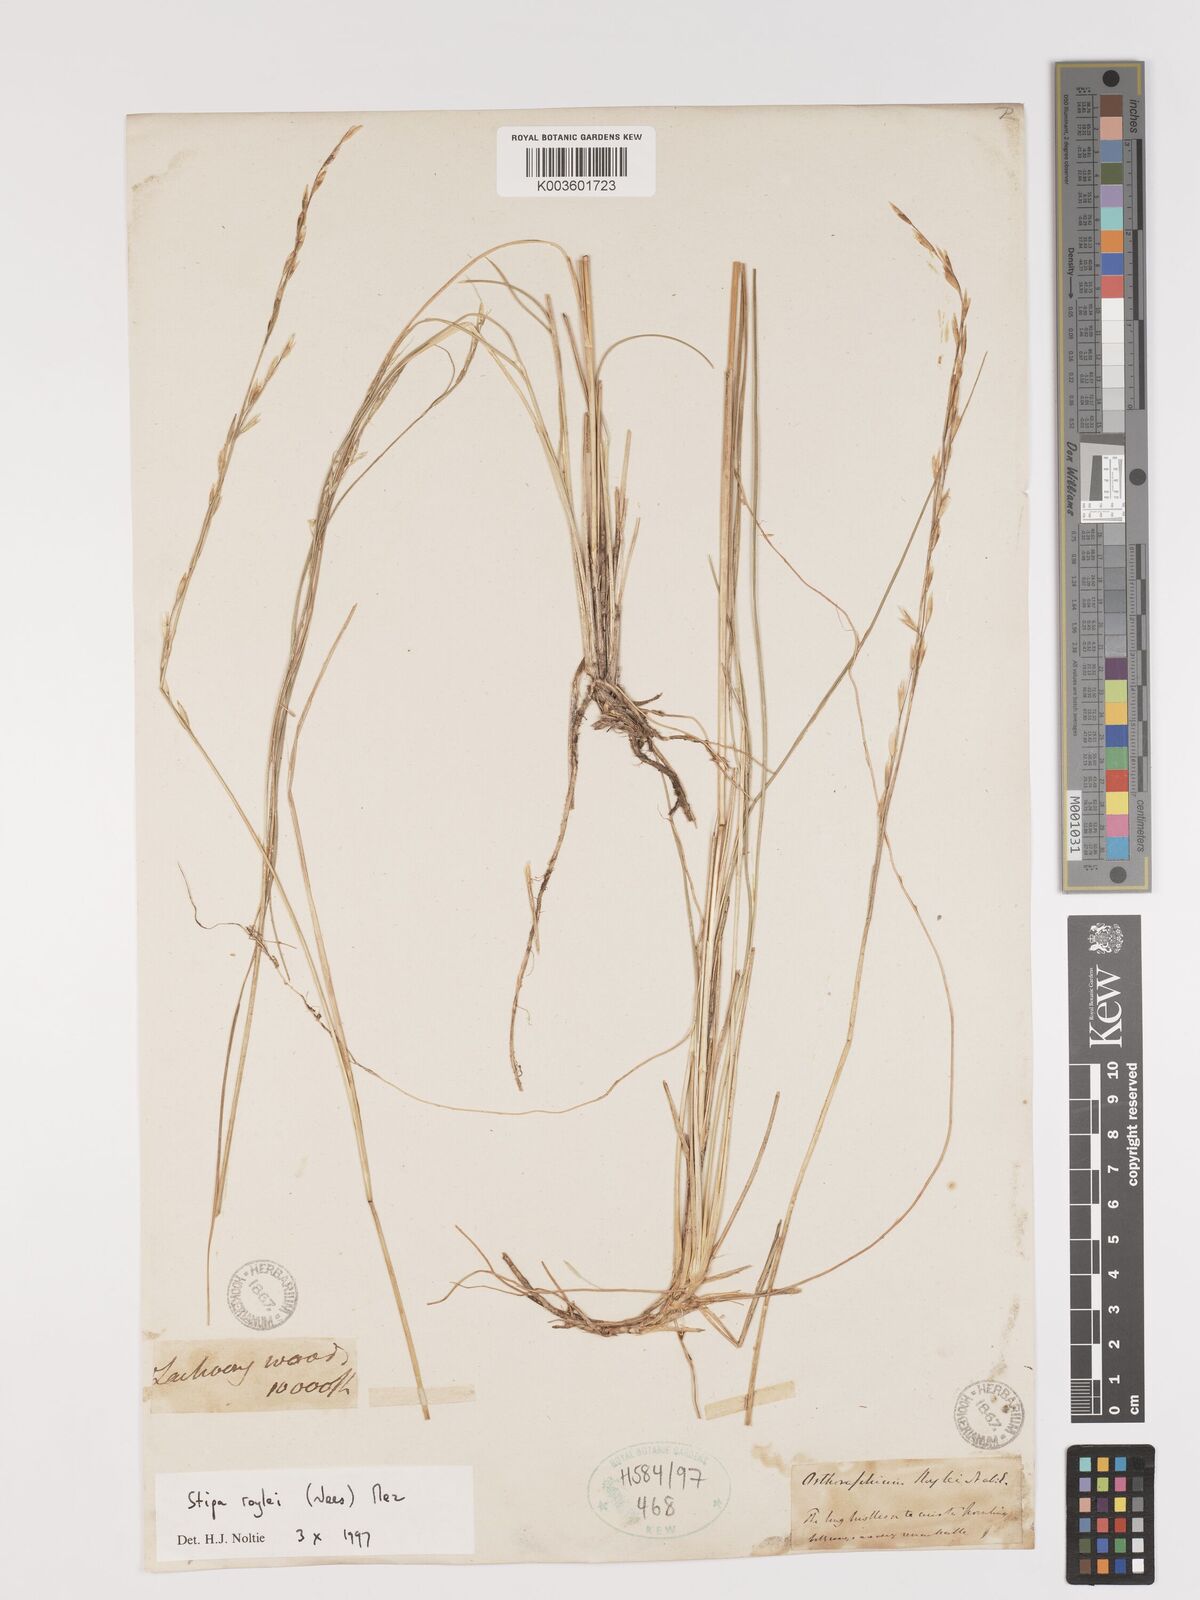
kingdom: Plantae
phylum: Tracheophyta
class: Liliopsida
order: Poales
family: Poaceae
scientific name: Poaceae
